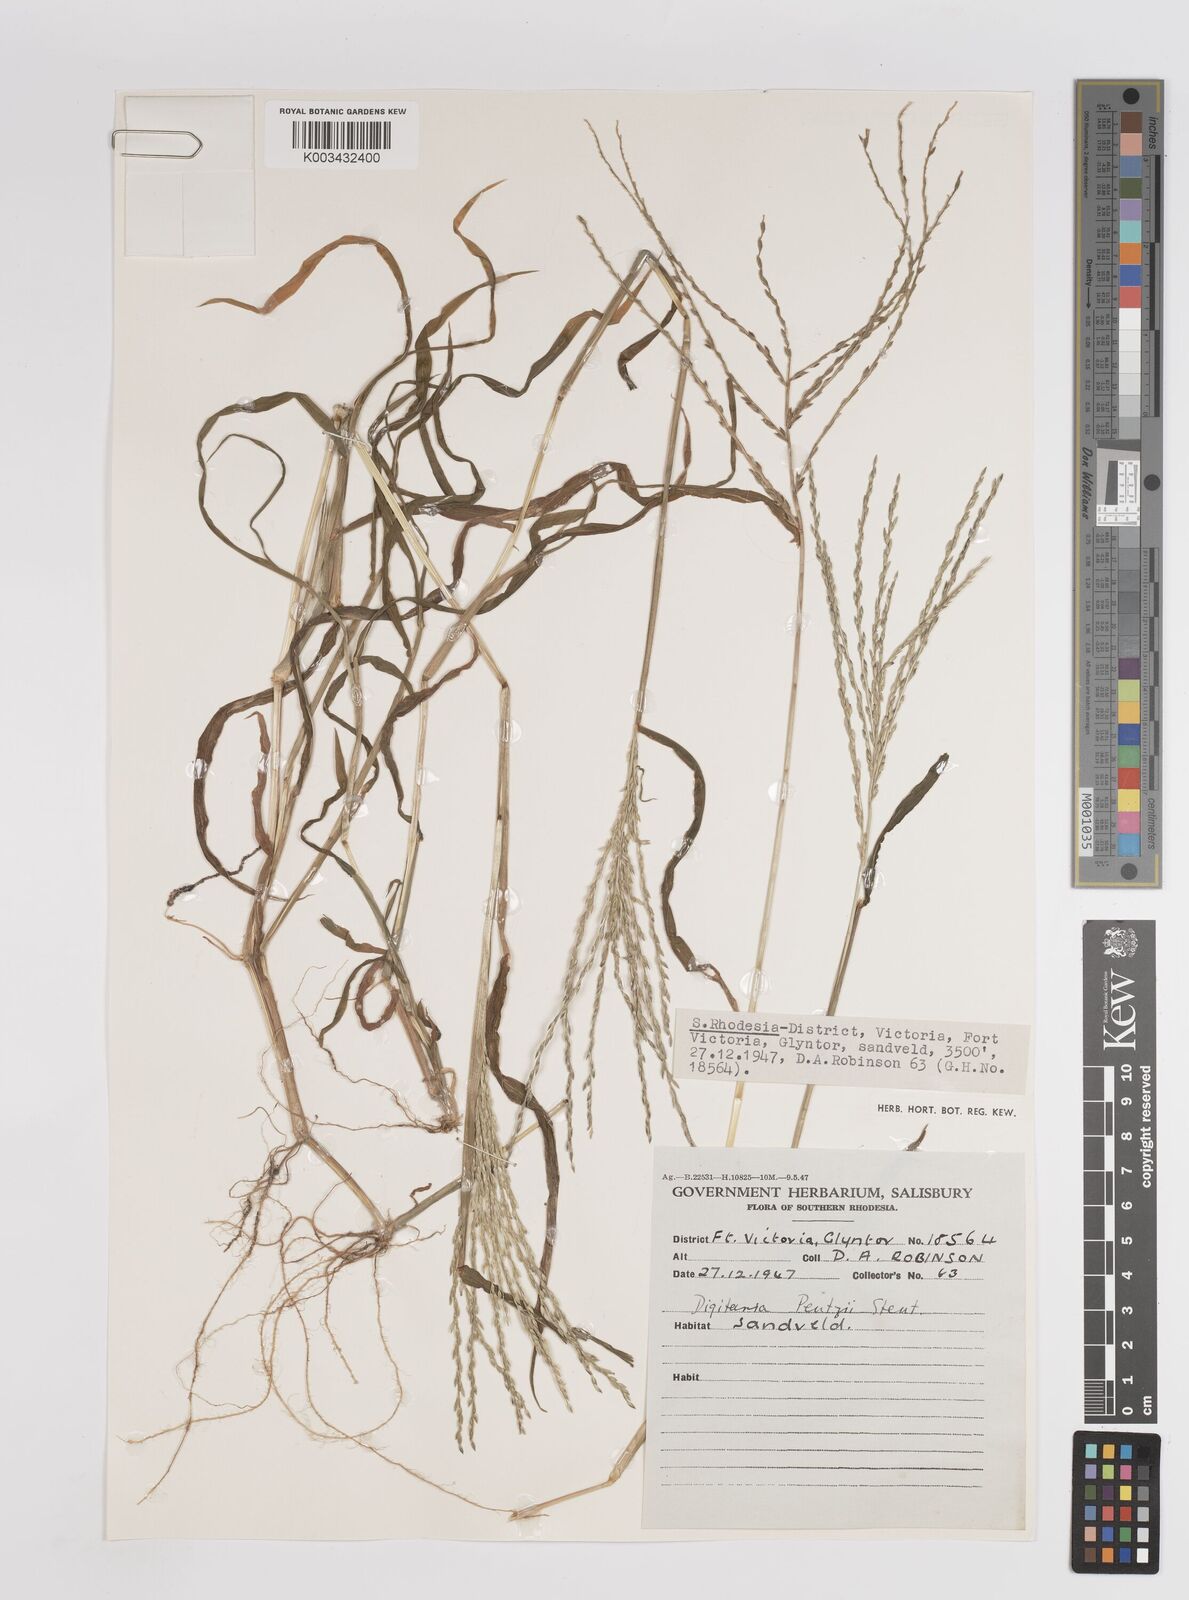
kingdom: Plantae
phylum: Tracheophyta
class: Liliopsida
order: Poales
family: Poaceae
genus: Digitaria
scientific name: Digitaria eriantha
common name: Digitgrass
